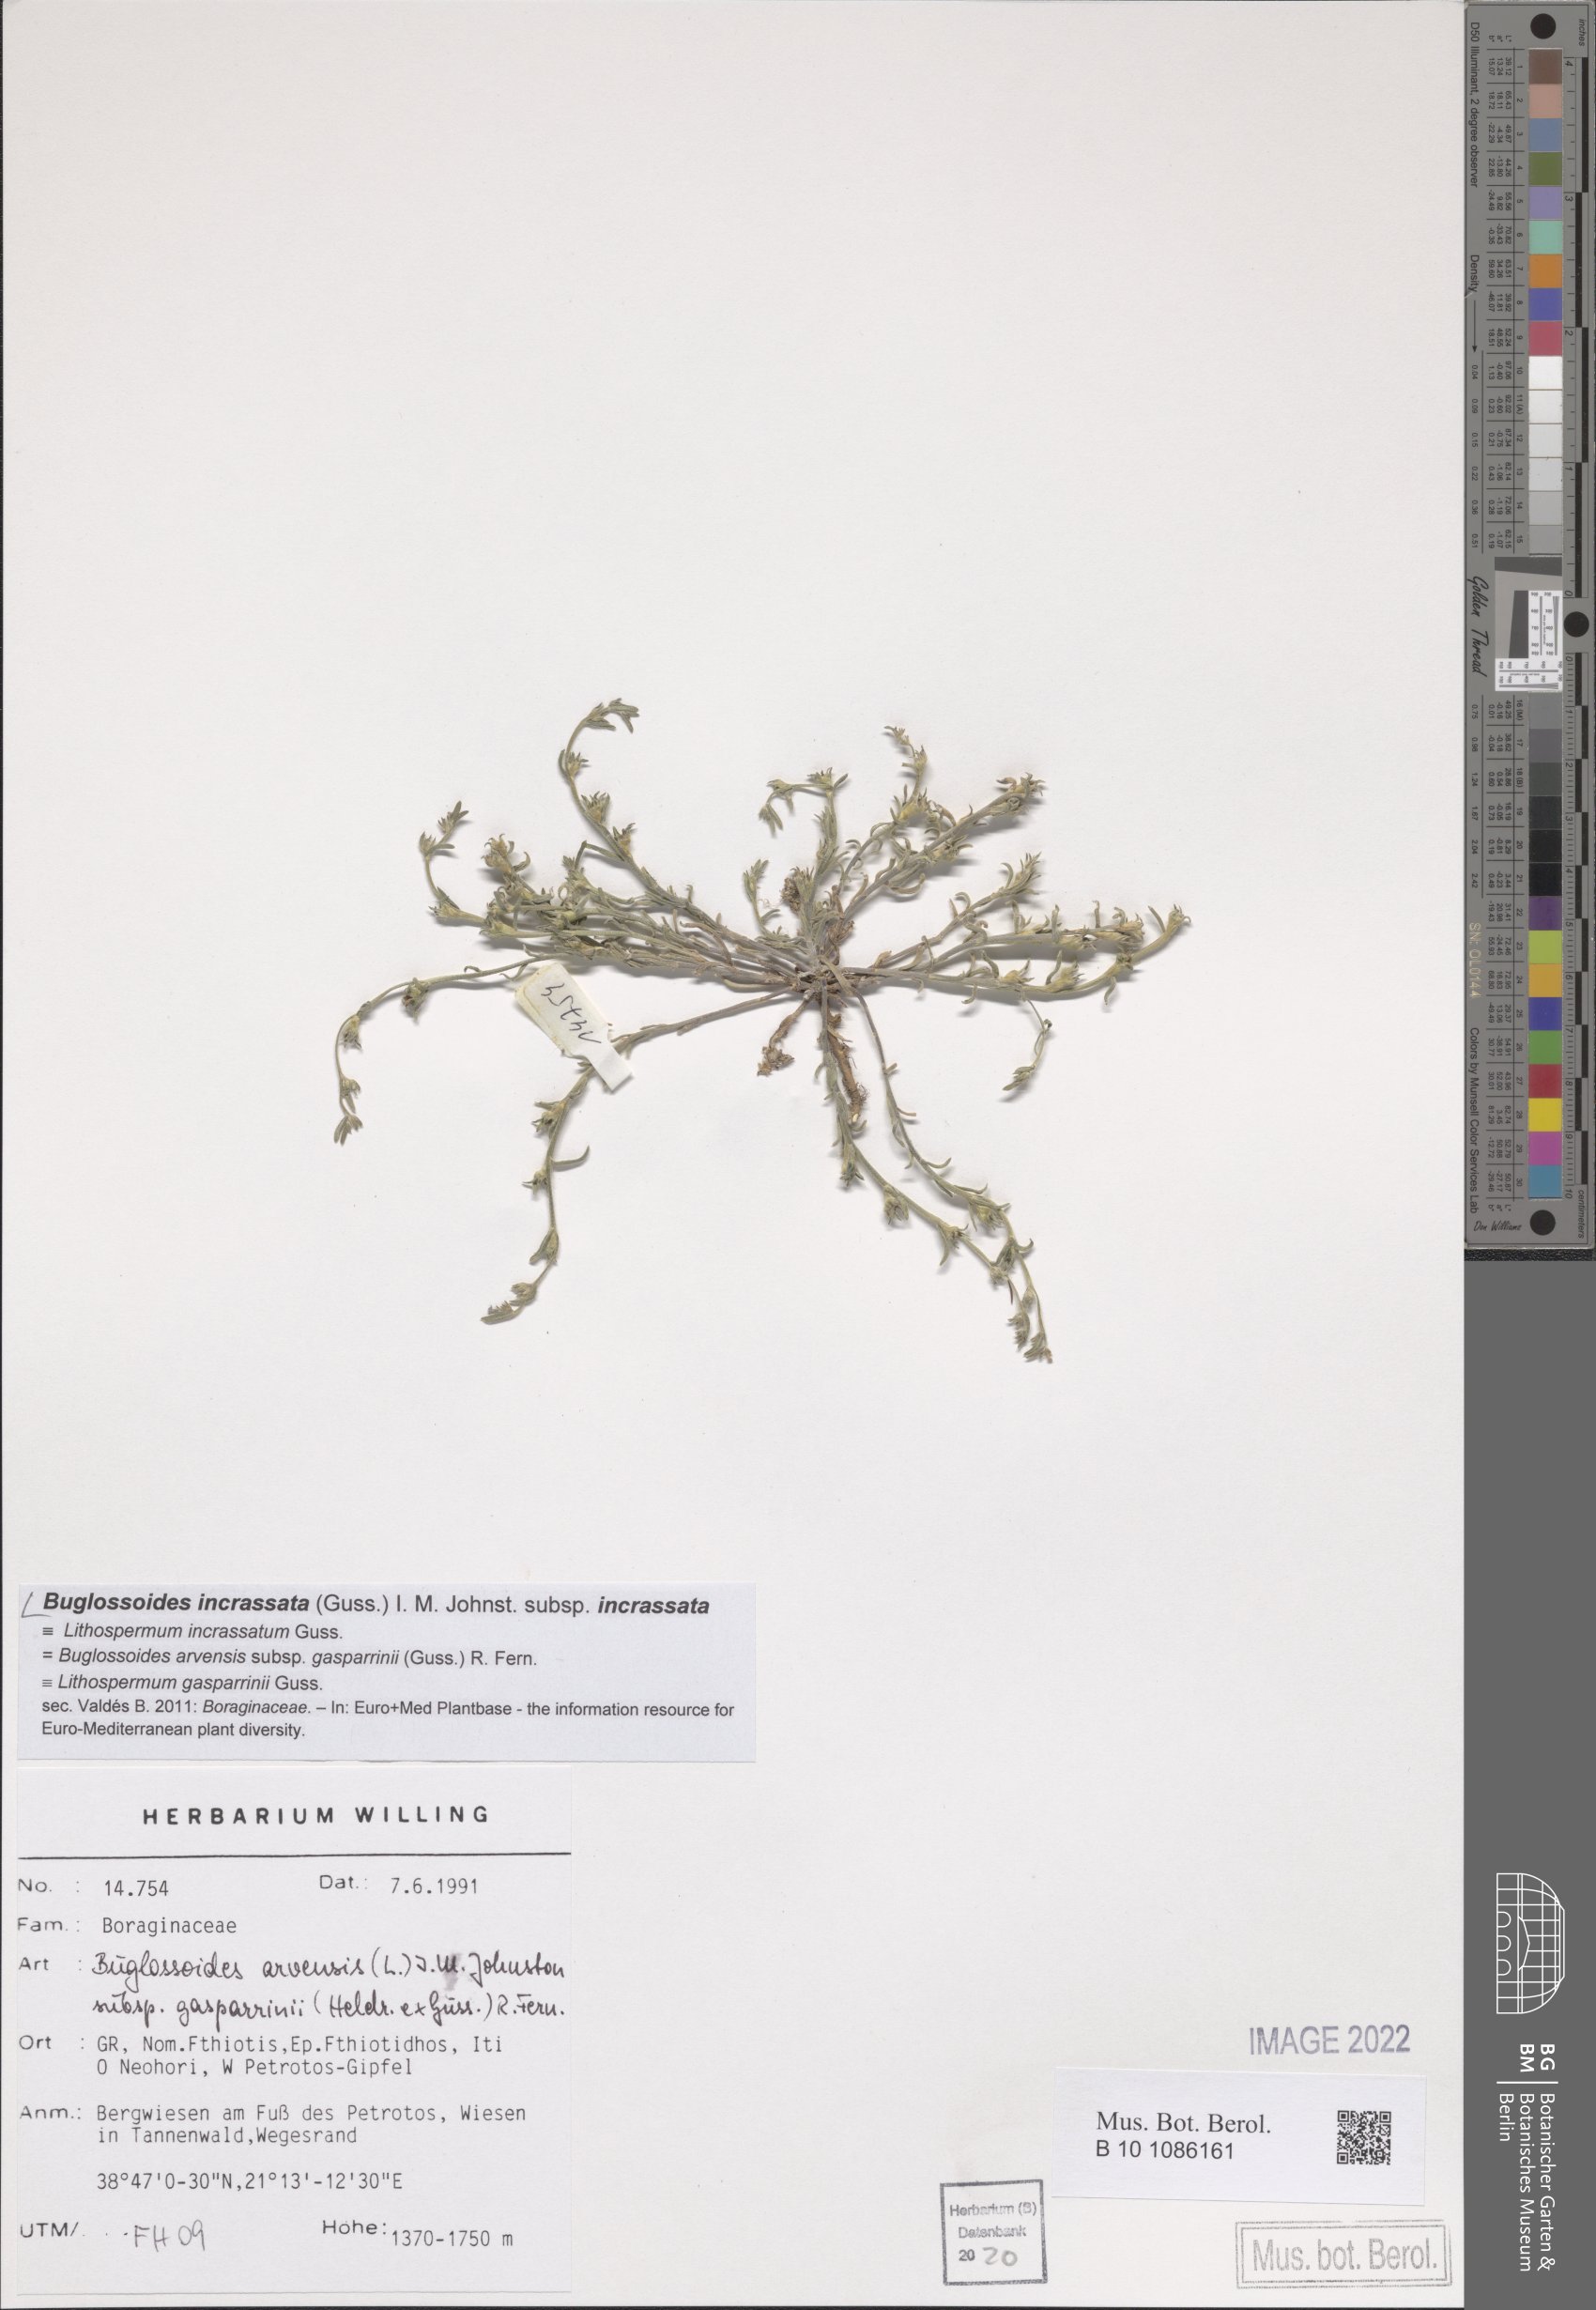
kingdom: Plantae
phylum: Tracheophyta
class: Magnoliopsida
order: Boraginales
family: Boraginaceae
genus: Buglossoides
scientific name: Buglossoides incrassata
